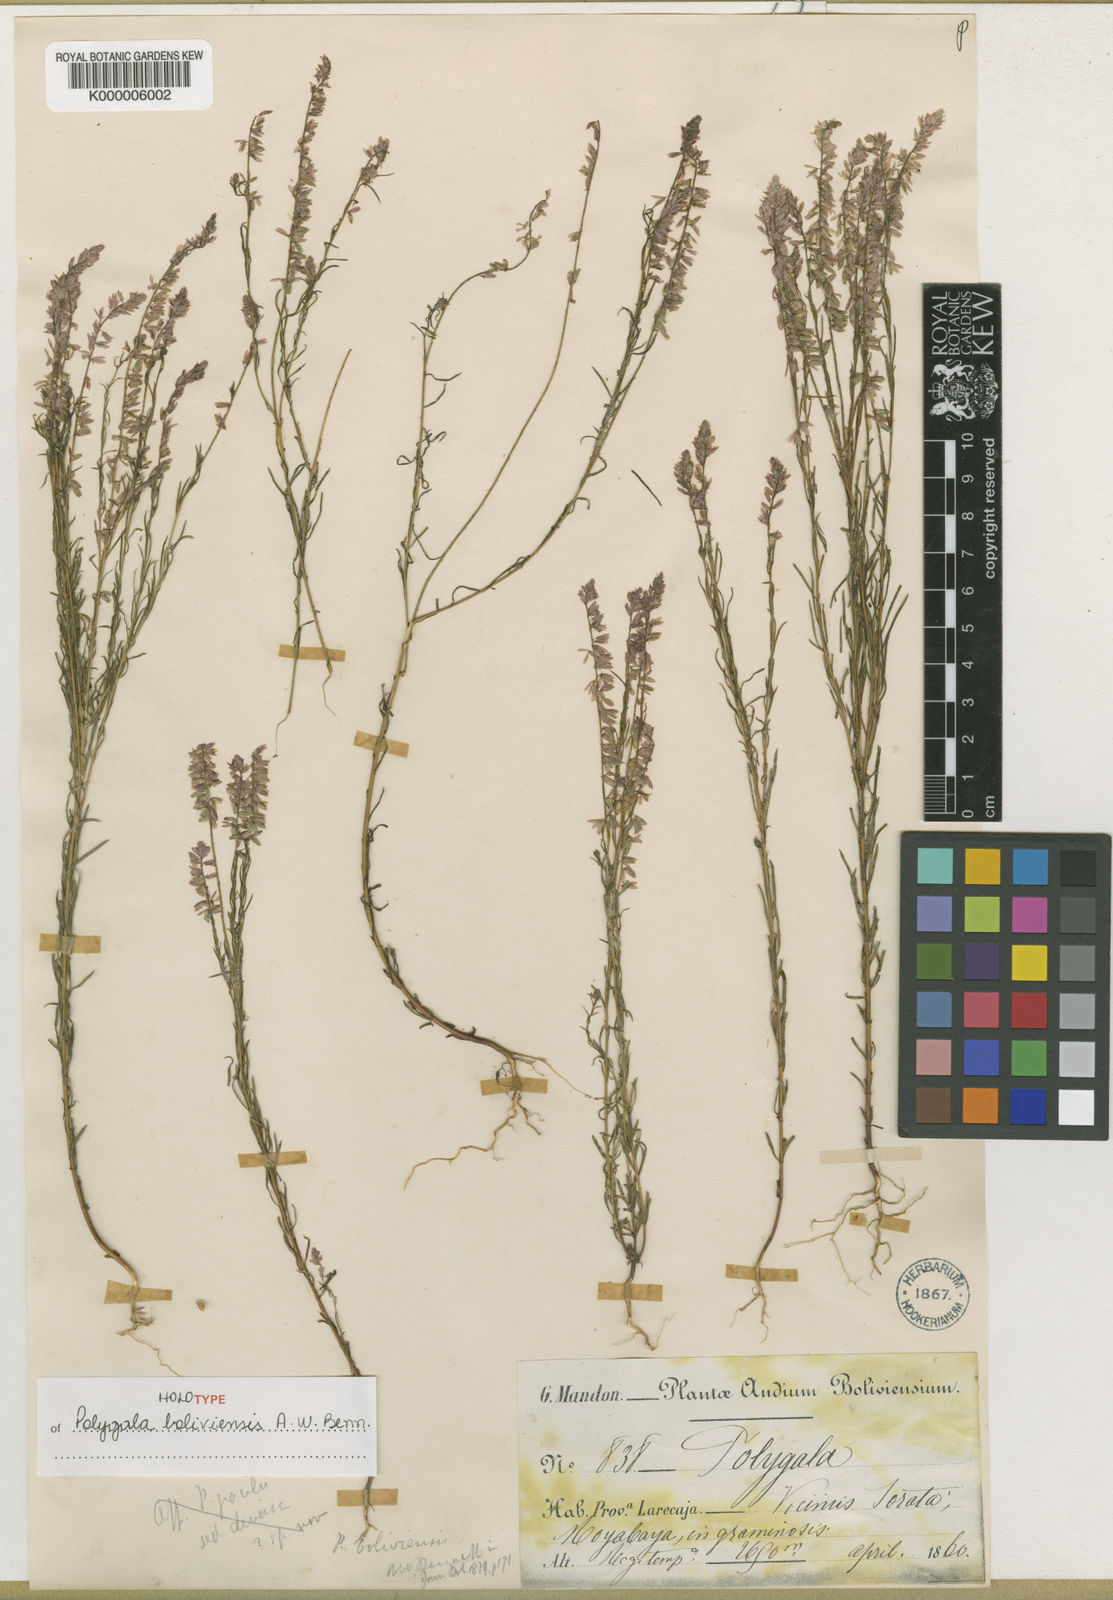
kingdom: Plantae
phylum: Tracheophyta
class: Magnoliopsida
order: Fabales
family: Polygalaceae
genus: Polygala
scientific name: Polygala boliviensis
